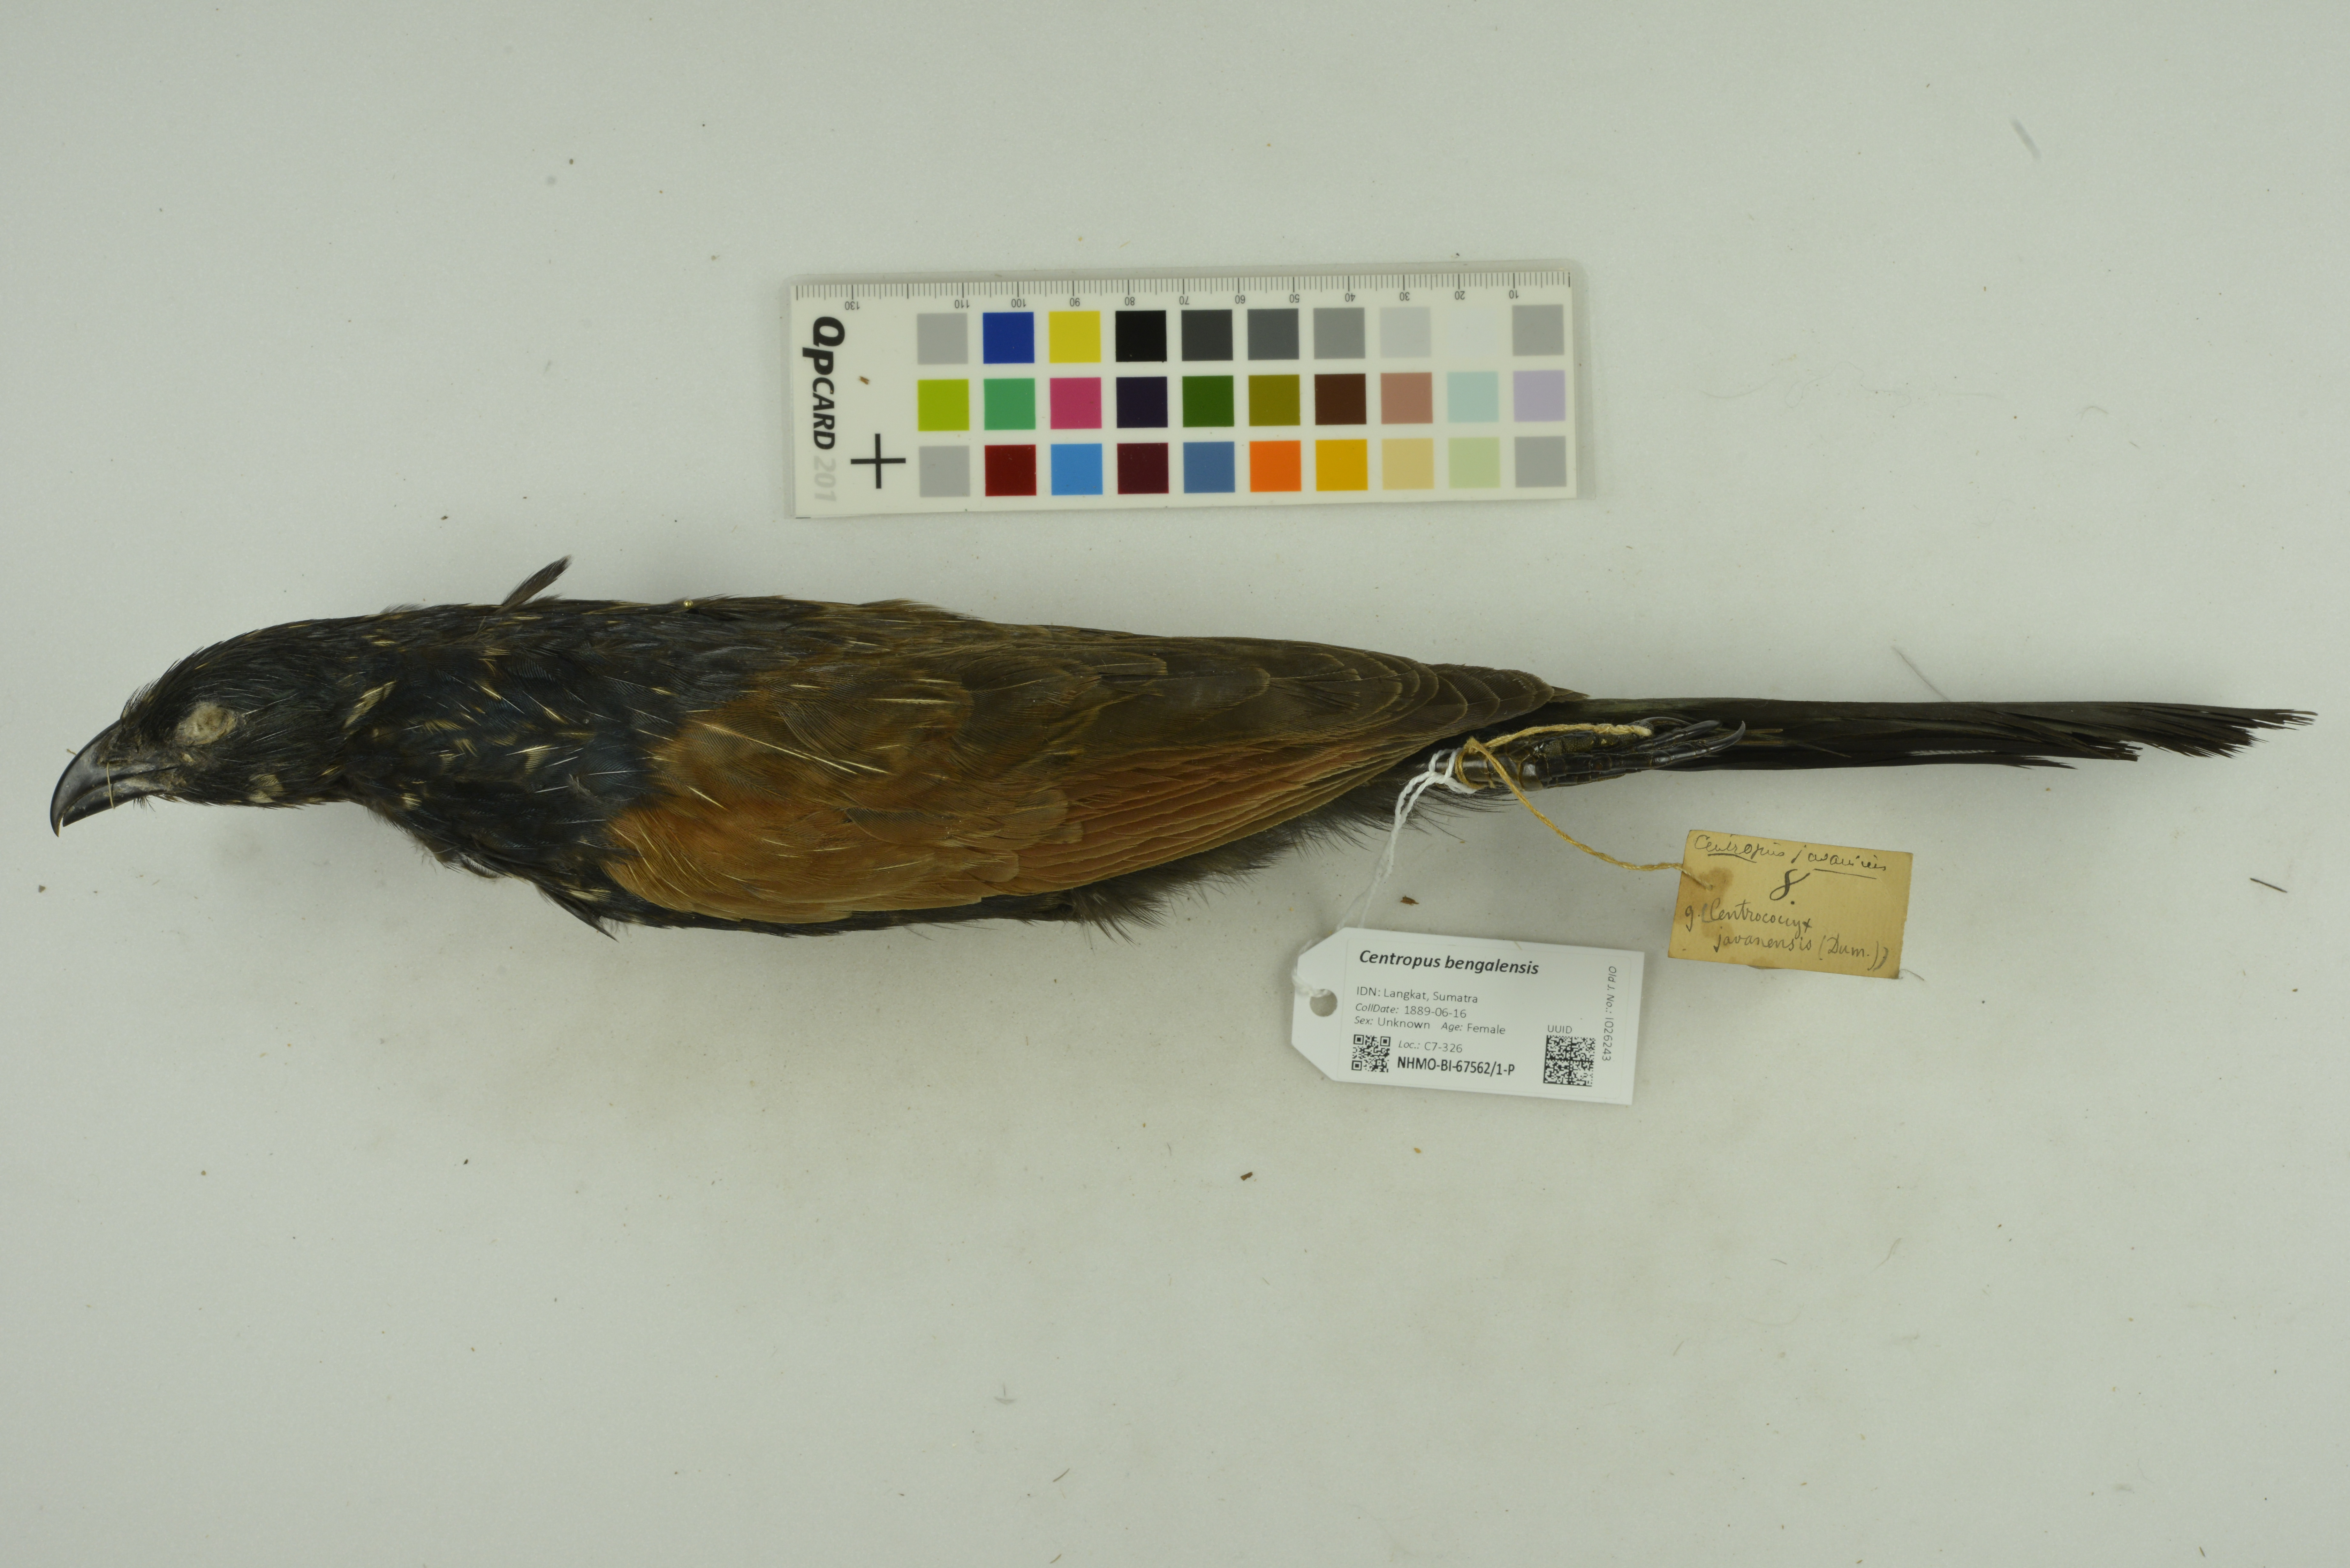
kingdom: Animalia
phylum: Chordata
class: Aves
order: Cuculiformes
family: Cuculidae
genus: Centropus
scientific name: Centropus bengalensis
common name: Lesser coucal
